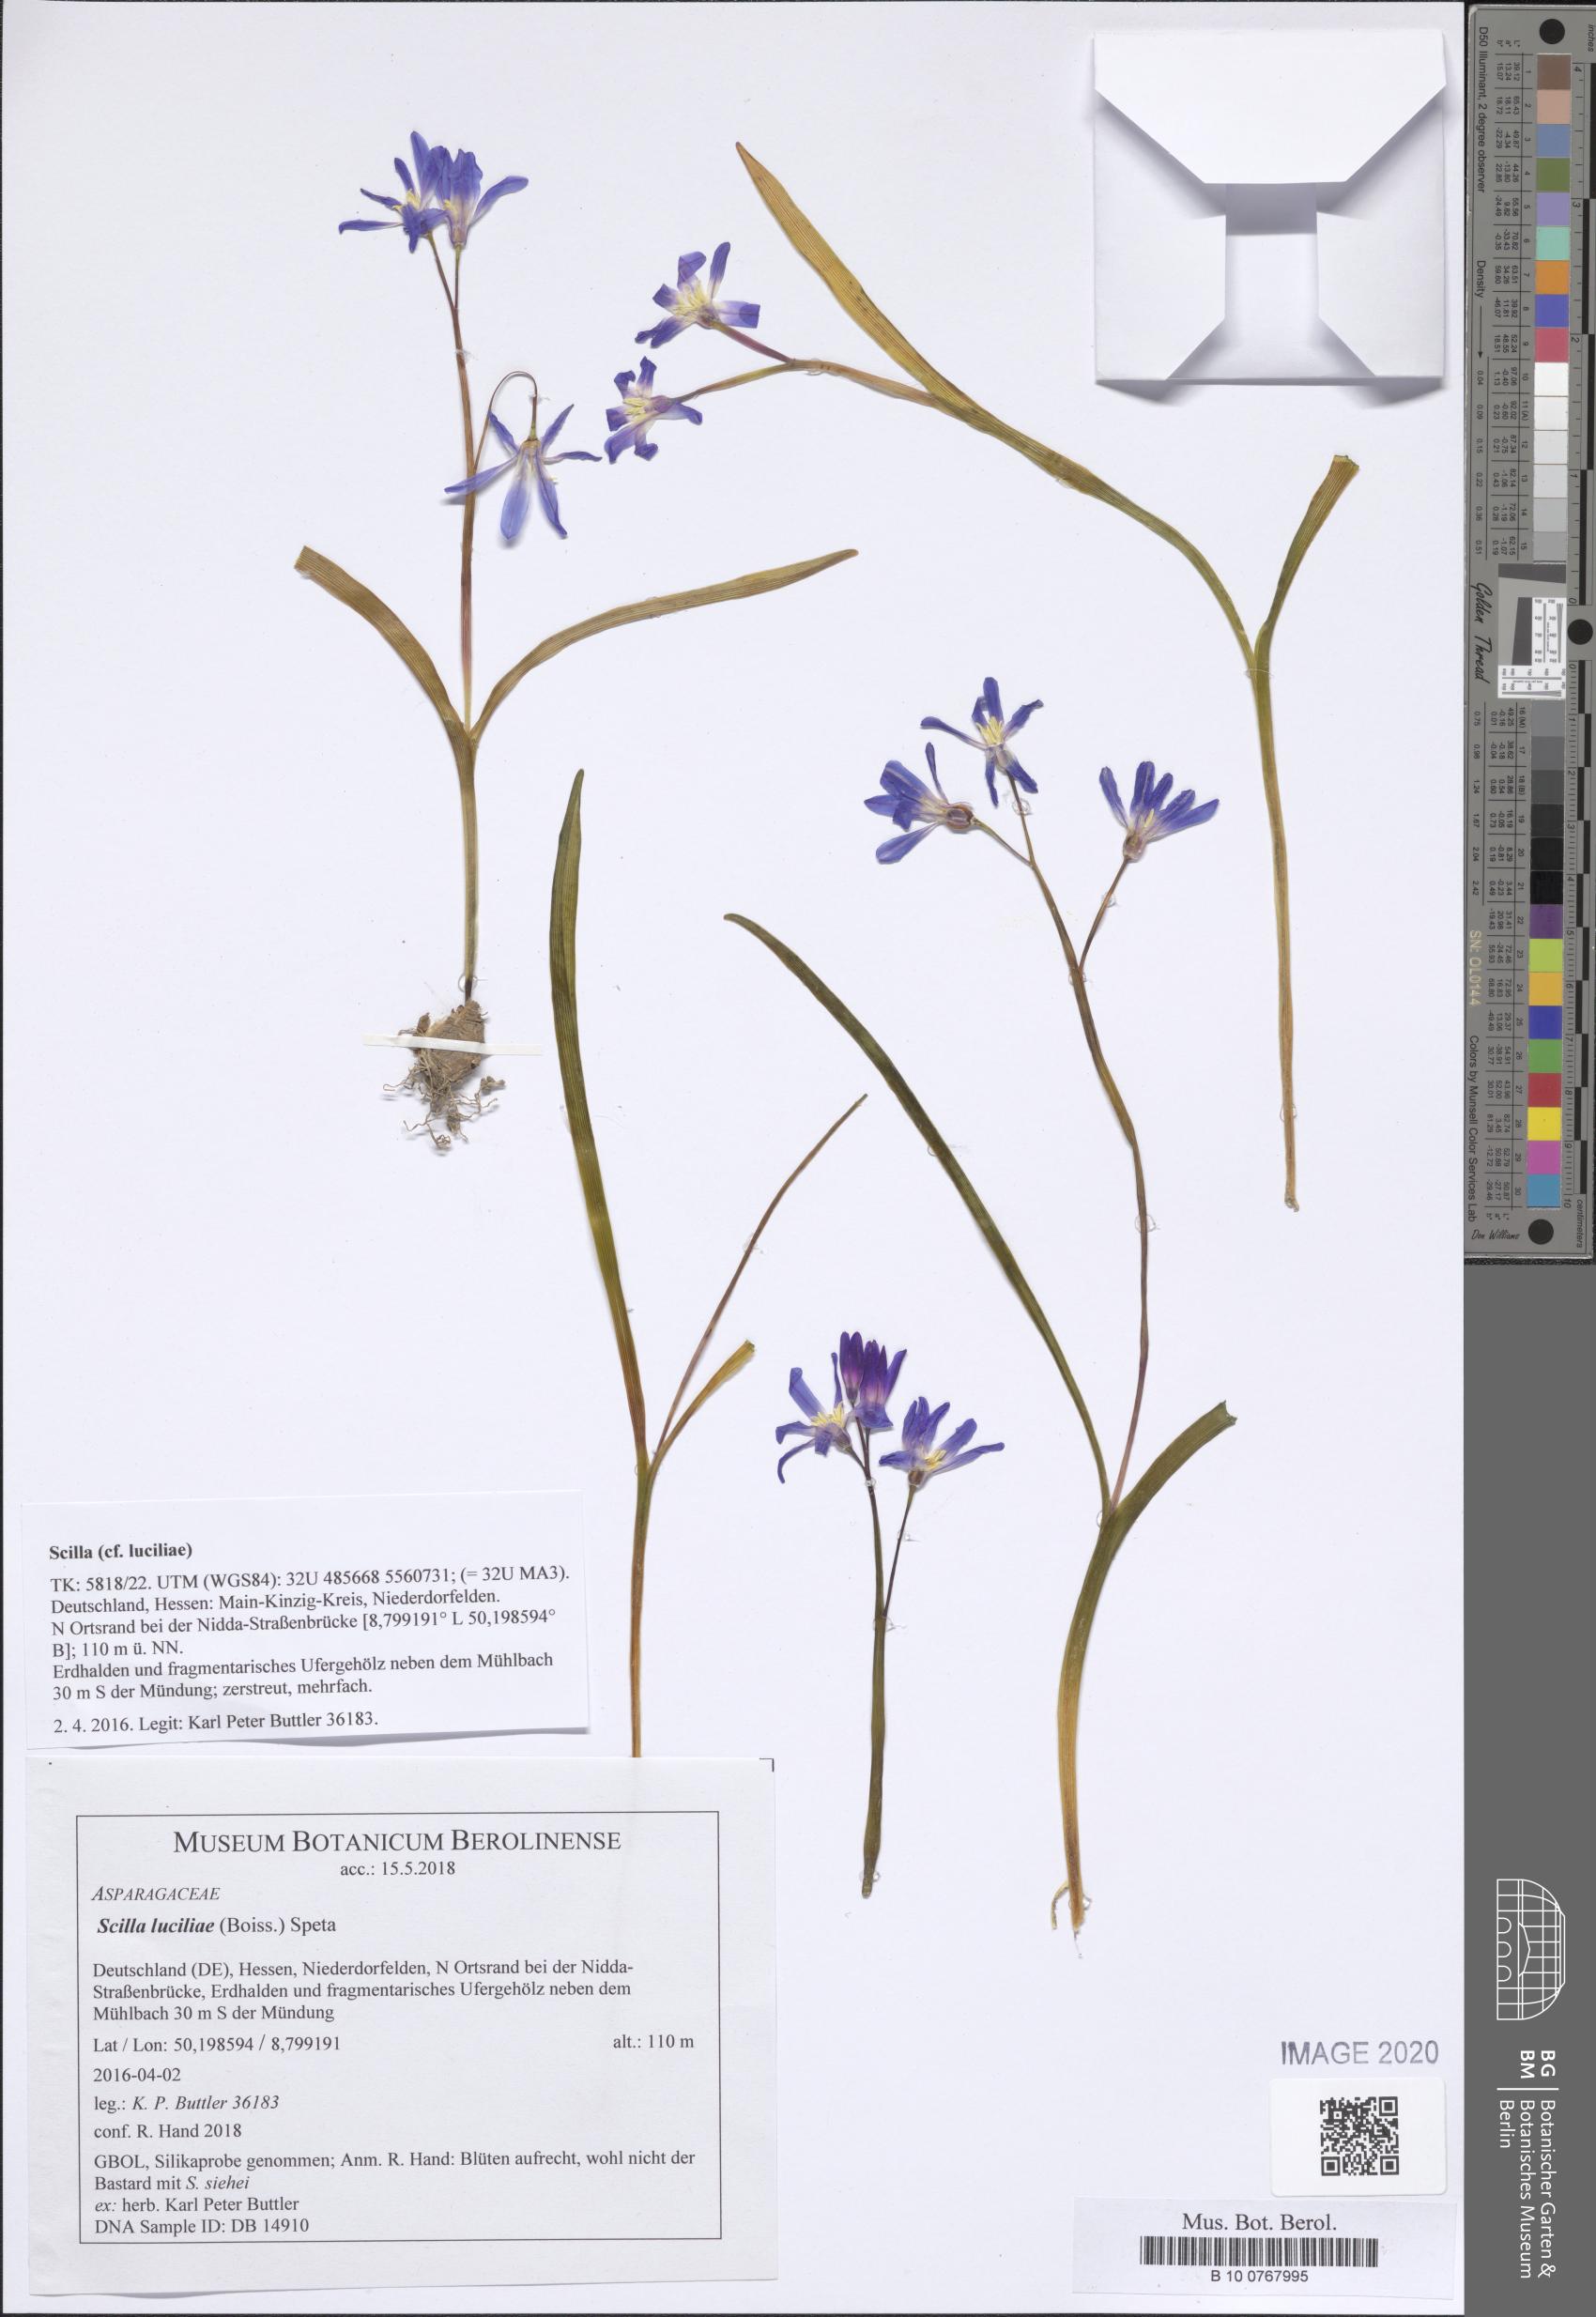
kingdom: Plantae
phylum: Tracheophyta
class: Liliopsida
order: Asparagales
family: Asparagaceae
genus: Scilla
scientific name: Scilla luciliae
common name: Boissier's glory-of-the-snow
